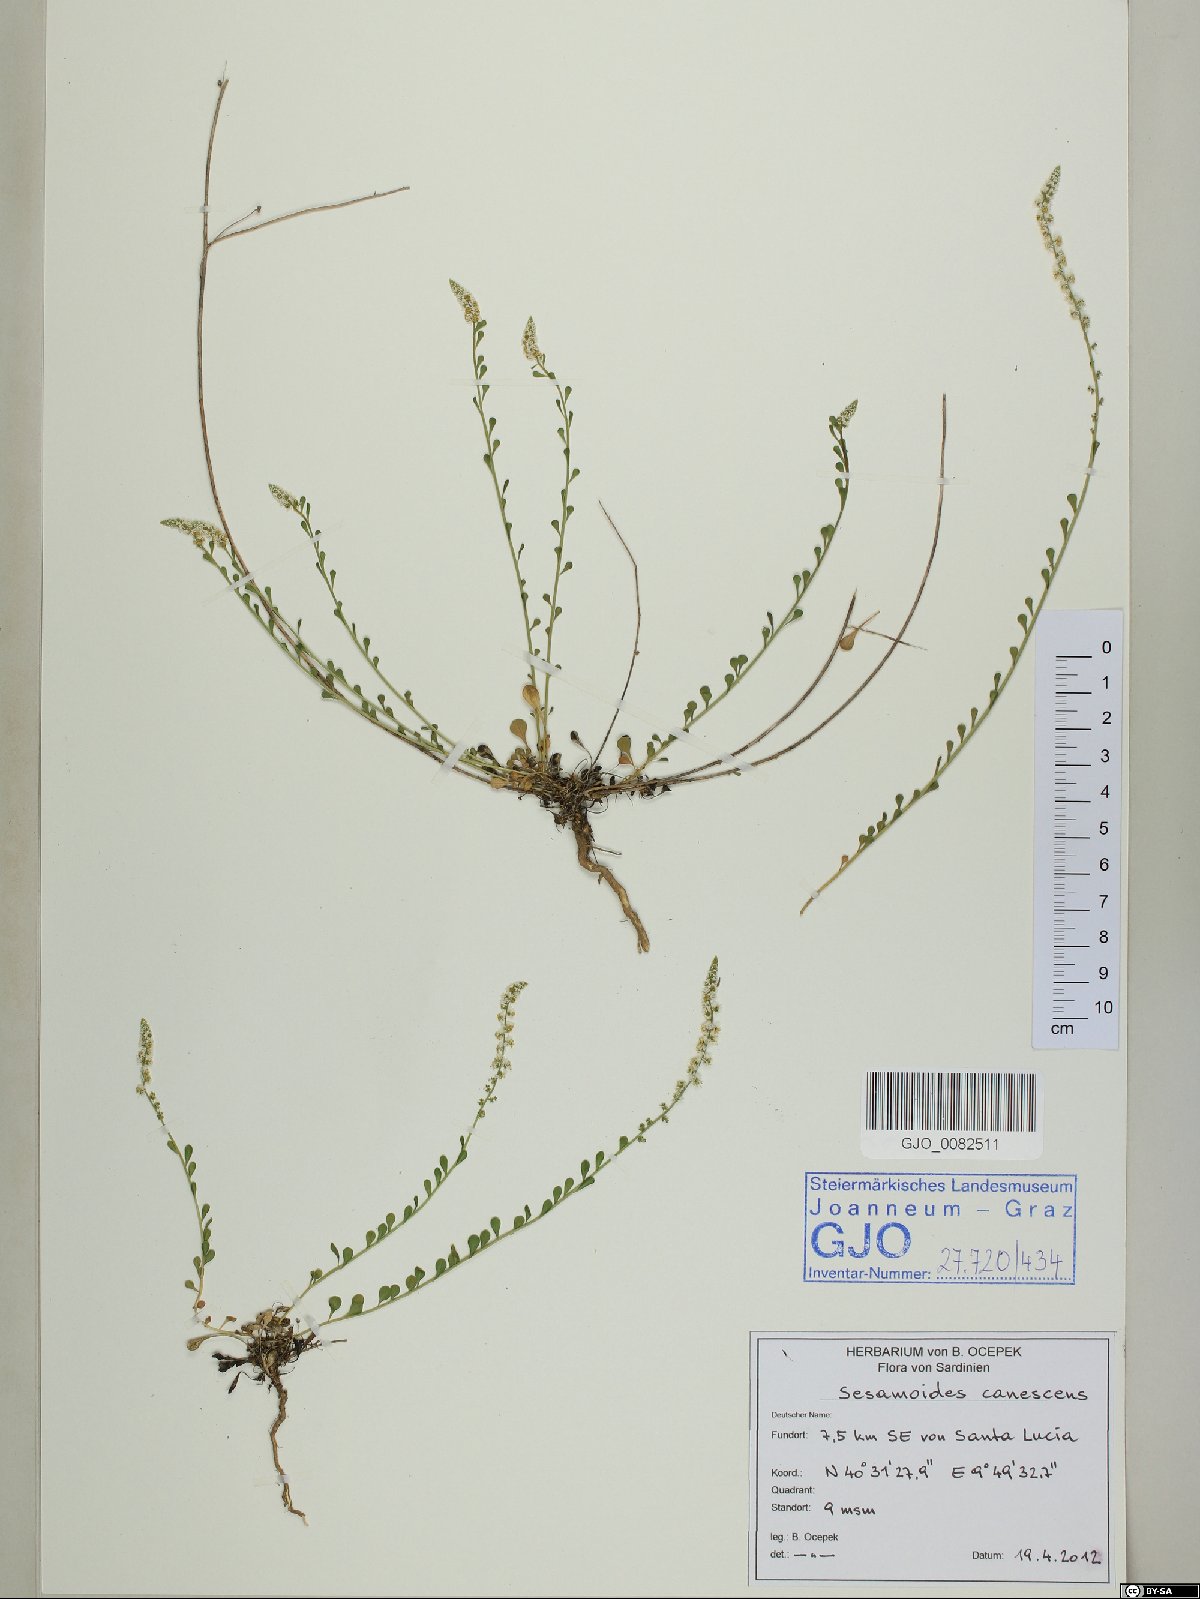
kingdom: Plantae
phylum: Tracheophyta
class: Magnoliopsida
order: Brassicales
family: Resedaceae
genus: Sesamoides
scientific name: Sesamoides interrupta
